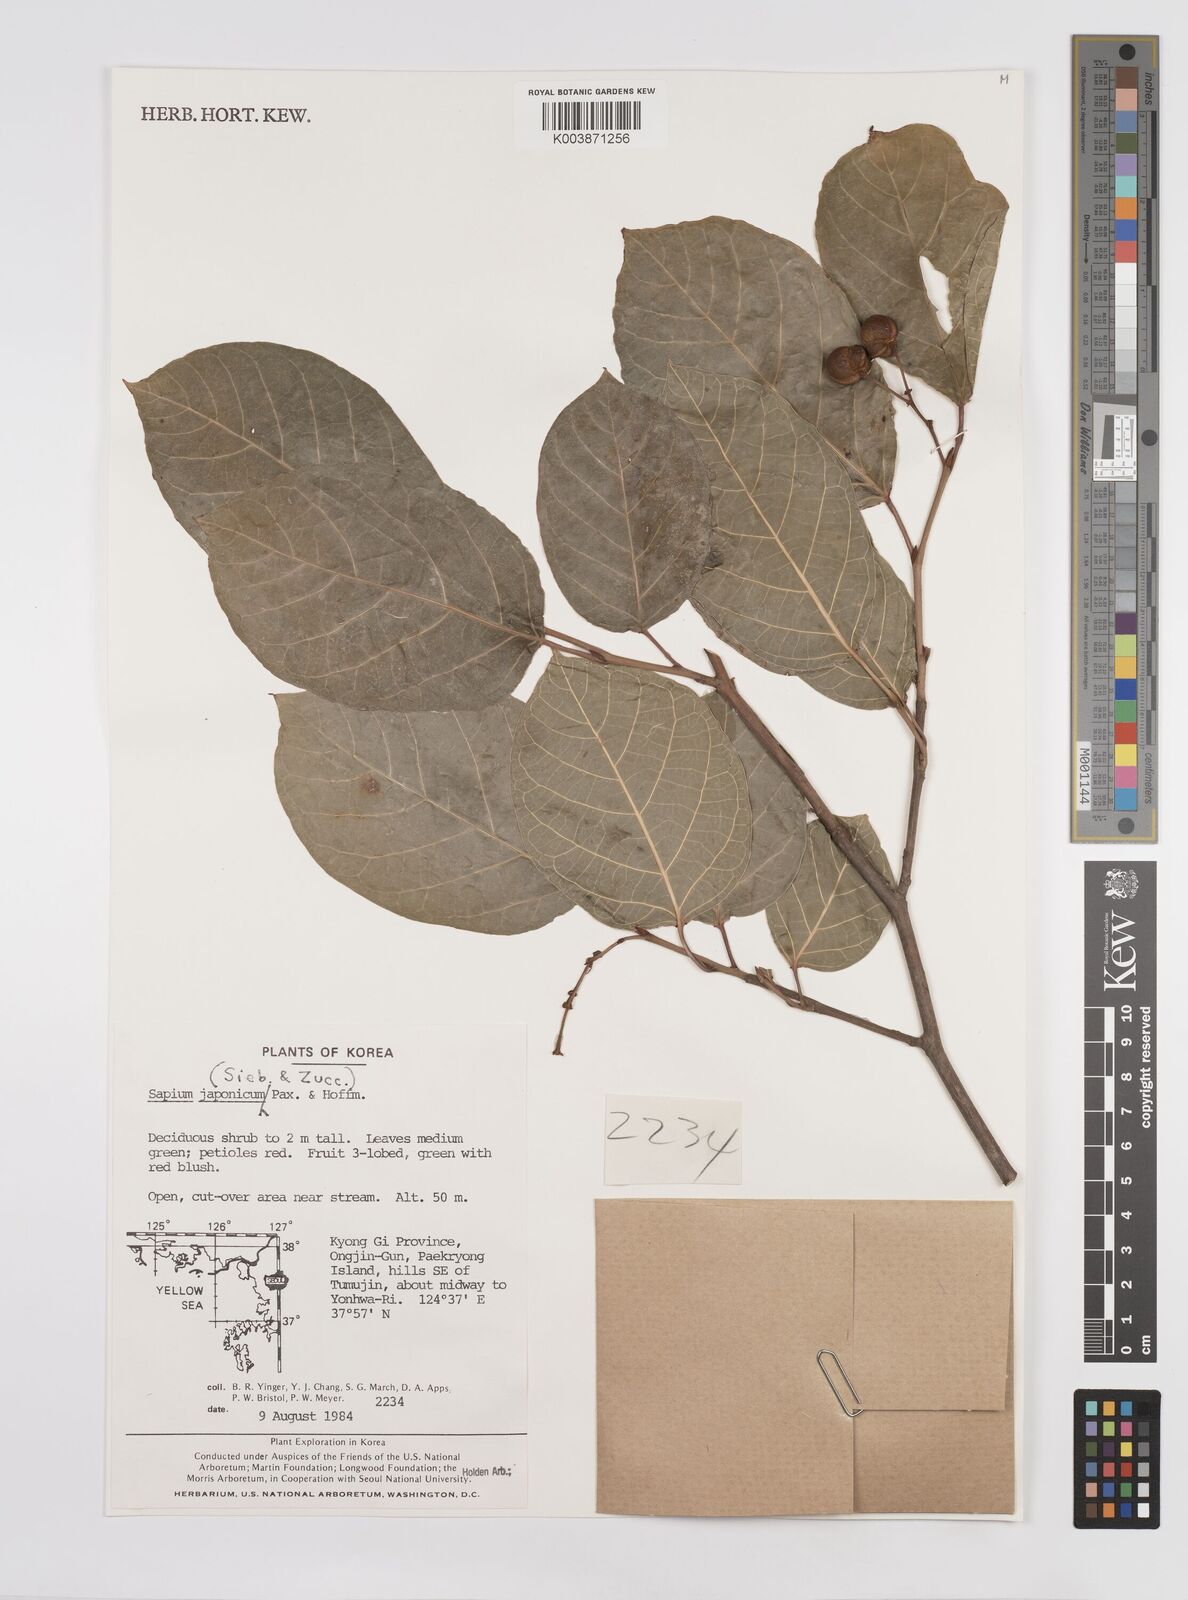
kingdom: Plantae
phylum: Tracheophyta
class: Magnoliopsida
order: Malpighiales
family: Euphorbiaceae
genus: Neoshirakia
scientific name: Neoshirakia japonica
